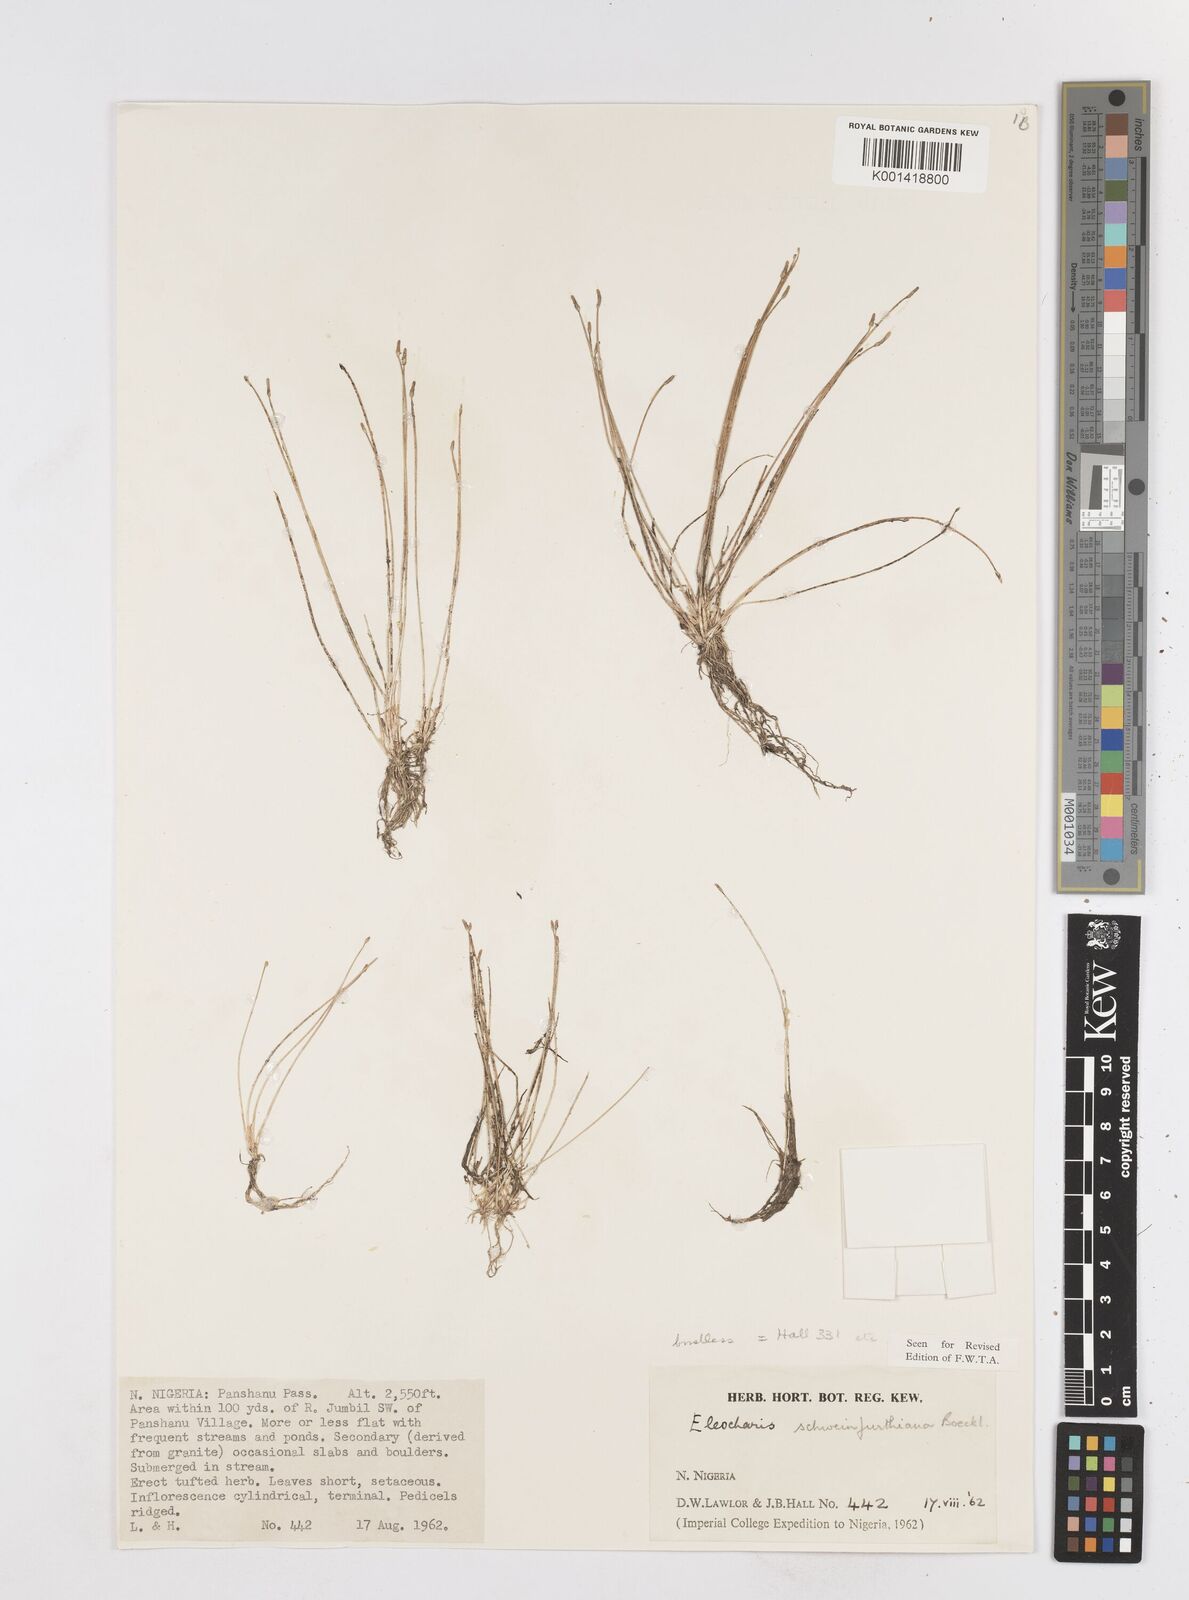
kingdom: Plantae
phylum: Tracheophyta
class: Liliopsida
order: Poales
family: Cyperaceae
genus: Eleocharis
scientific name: Eleocharis setifolia
